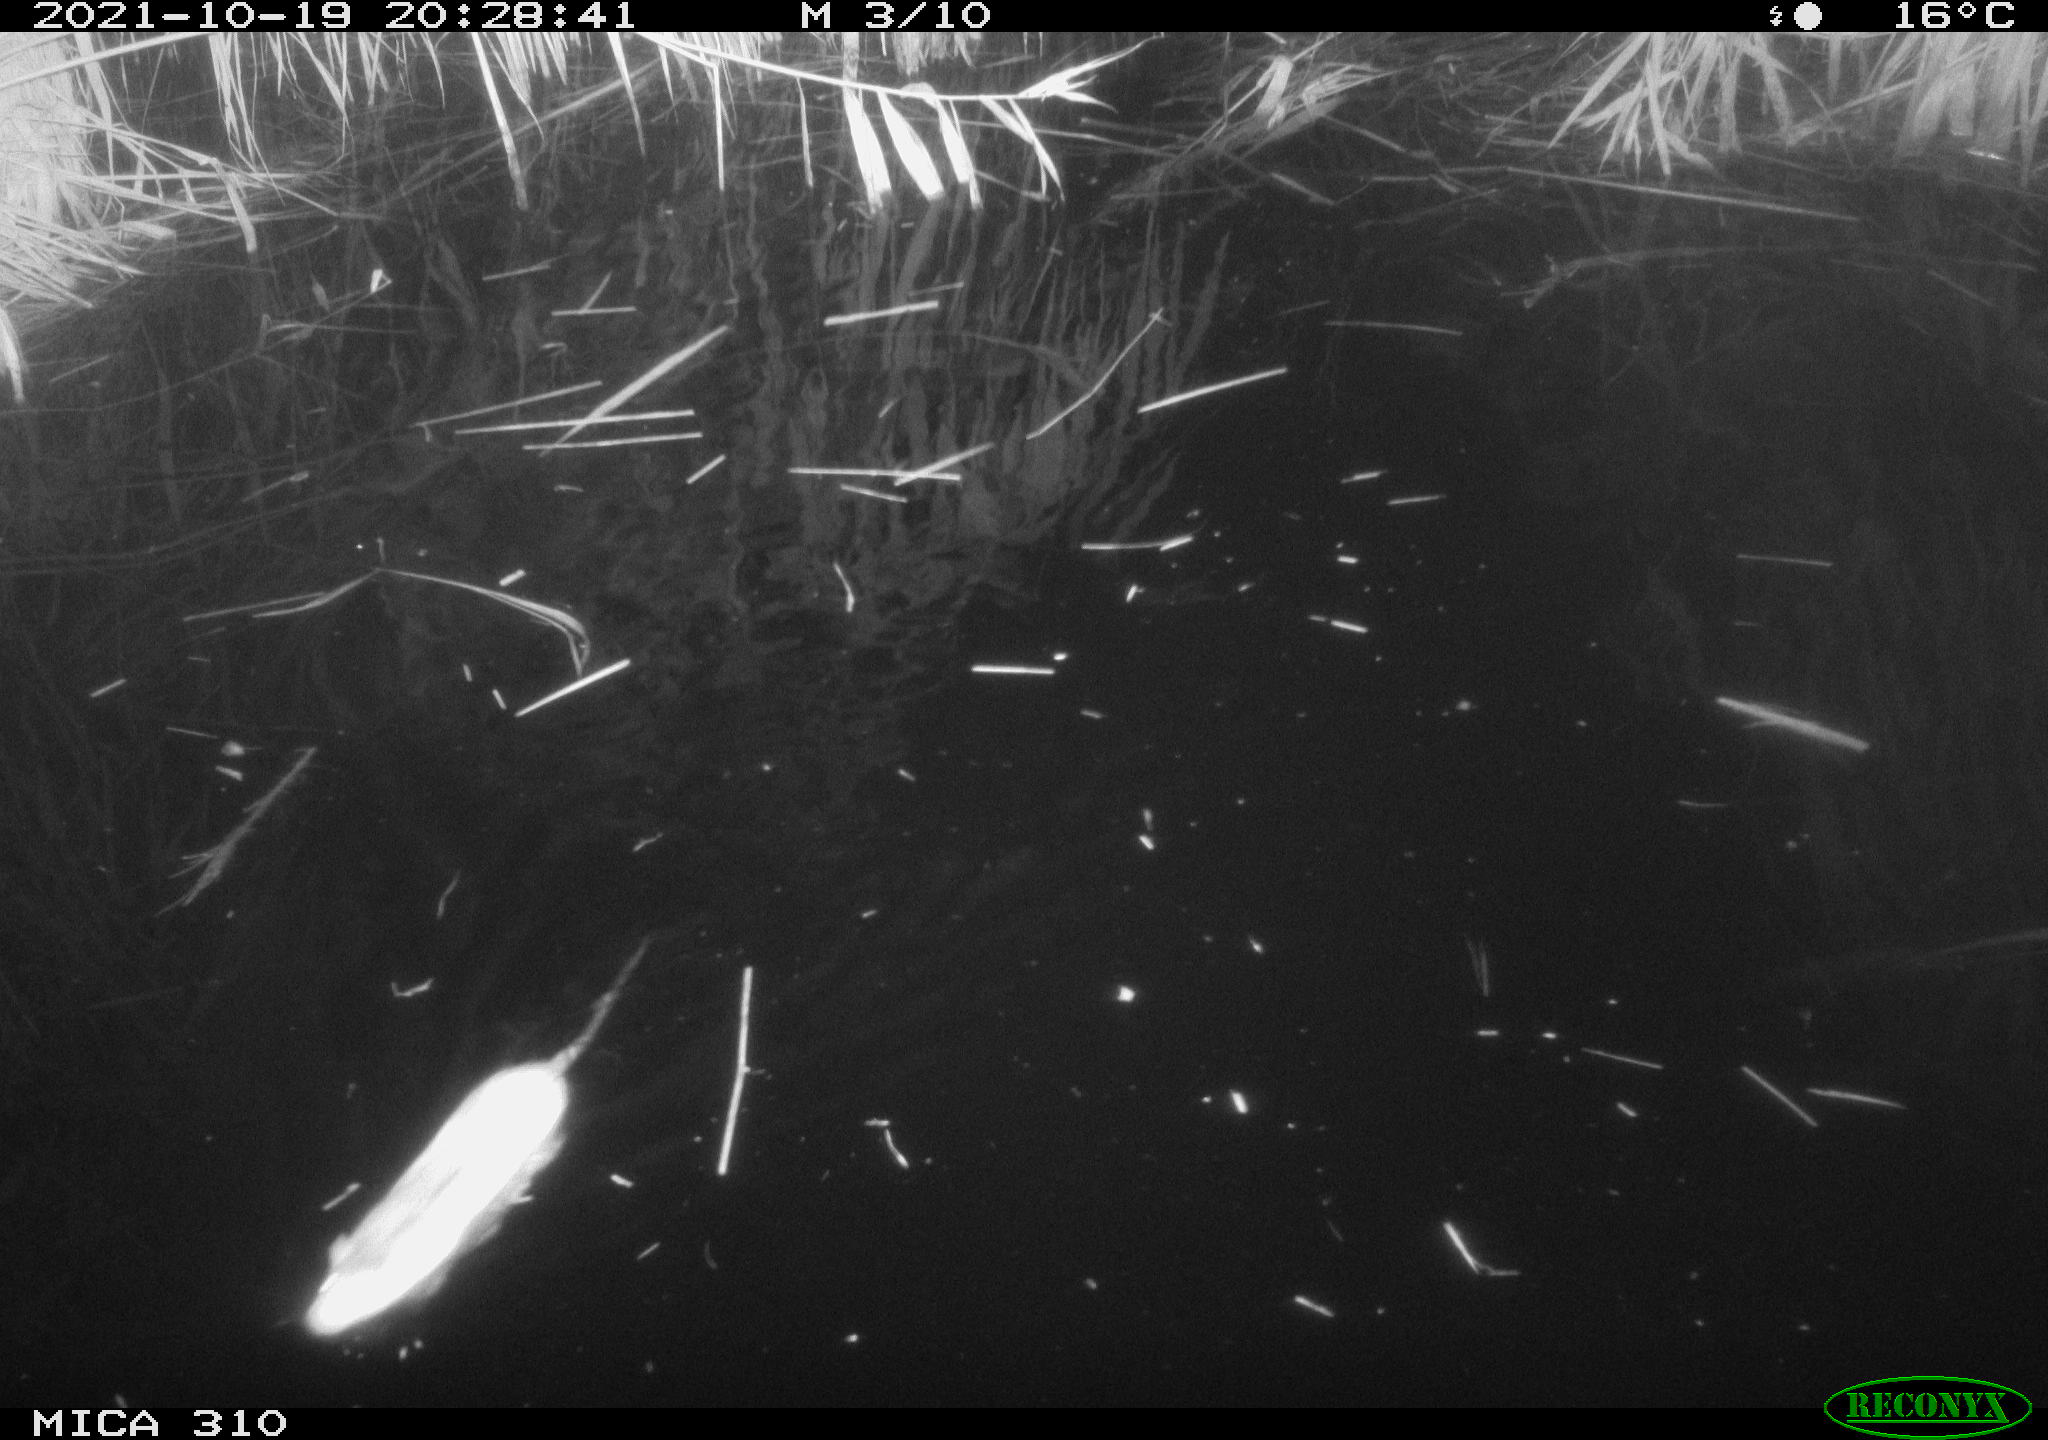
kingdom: Animalia
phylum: Chordata
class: Mammalia
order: Rodentia
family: Muridae
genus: Rattus
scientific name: Rattus norvegicus
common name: Brown rat
